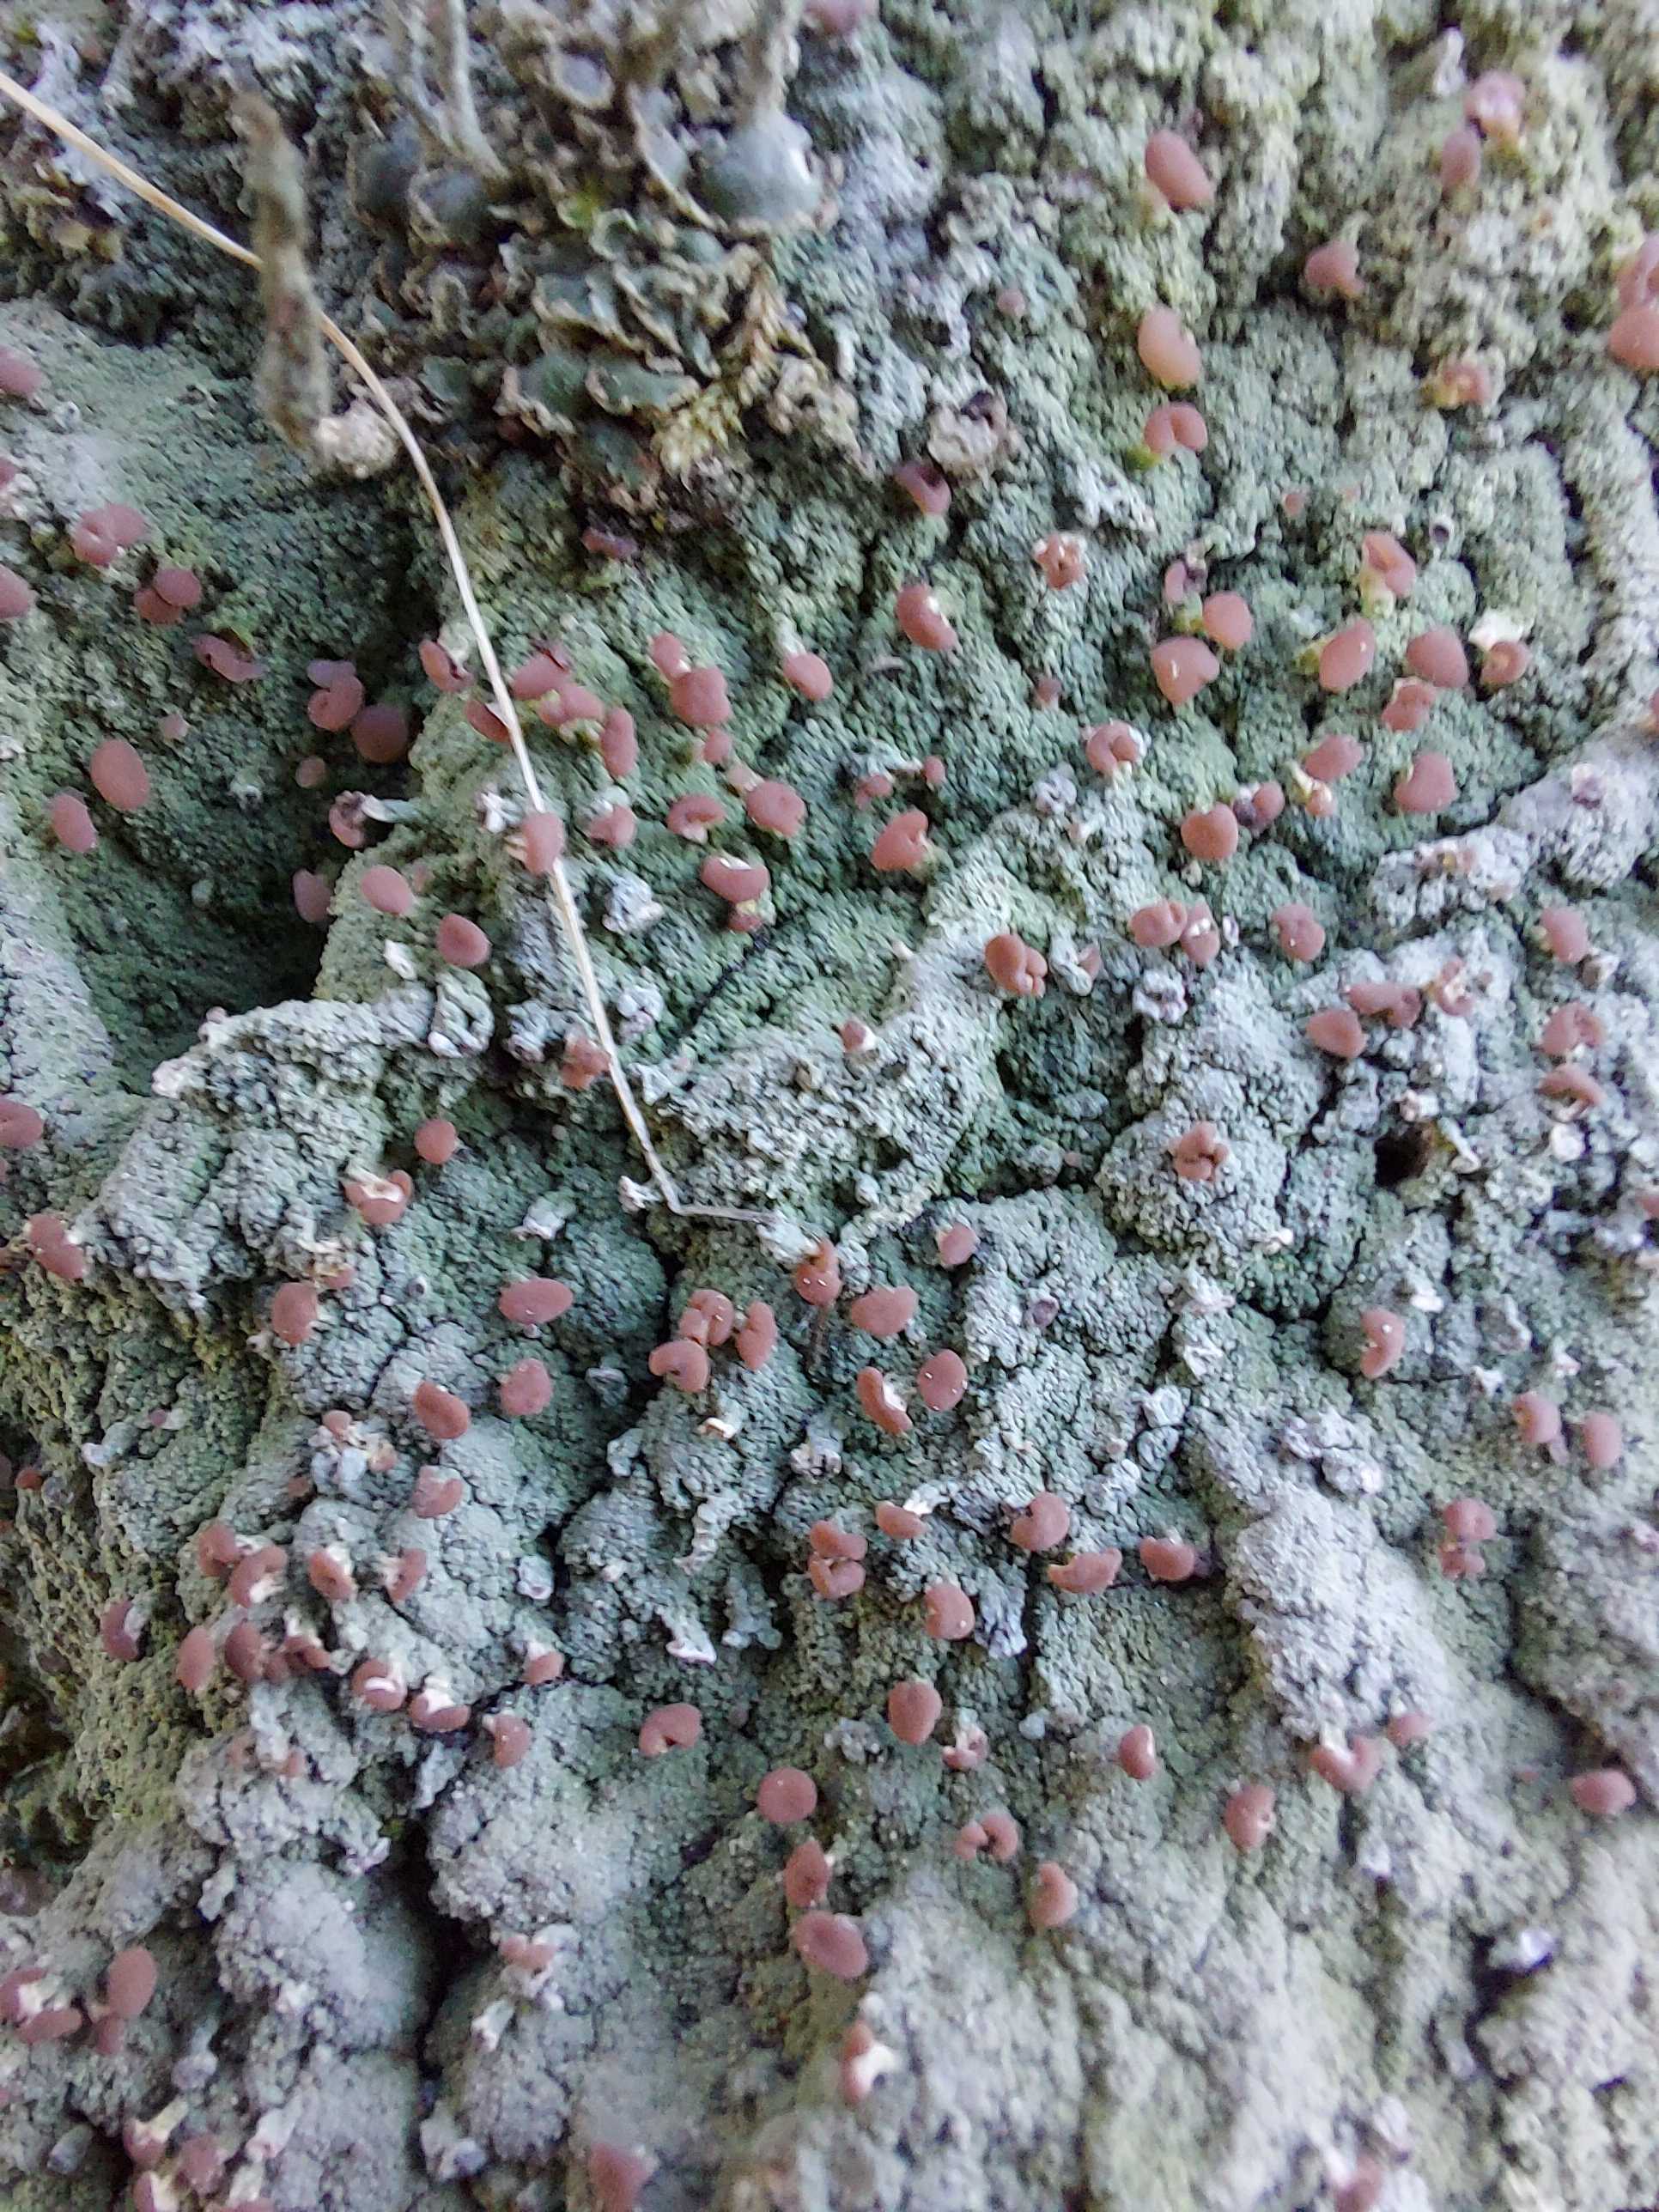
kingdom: Fungi
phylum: Ascomycota
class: Lecanoromycetes
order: Baeomycetales
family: Baeomycetaceae
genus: Baeomyces
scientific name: Baeomyces rufus
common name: rødbrun svampelav
